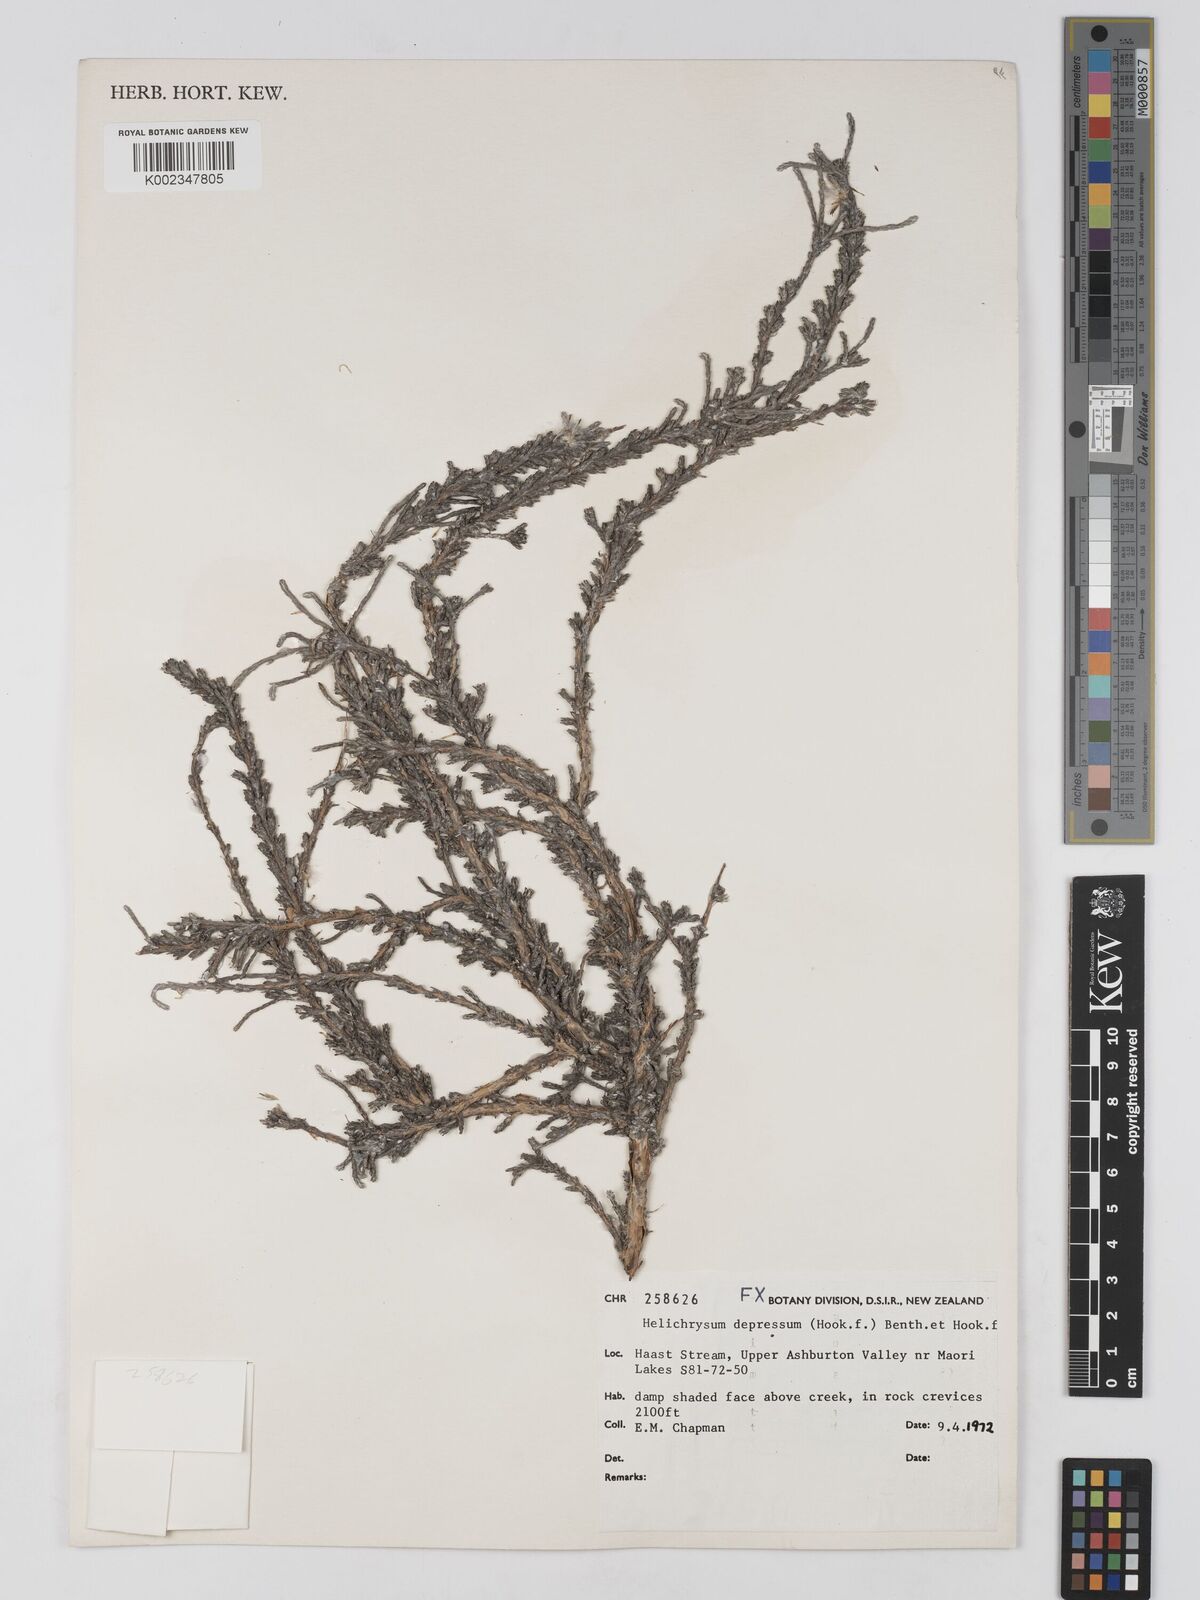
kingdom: Plantae
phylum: Tracheophyta
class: Magnoliopsida
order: Asterales
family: Asteraceae
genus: Ozothamnus
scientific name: Ozothamnus depressus
